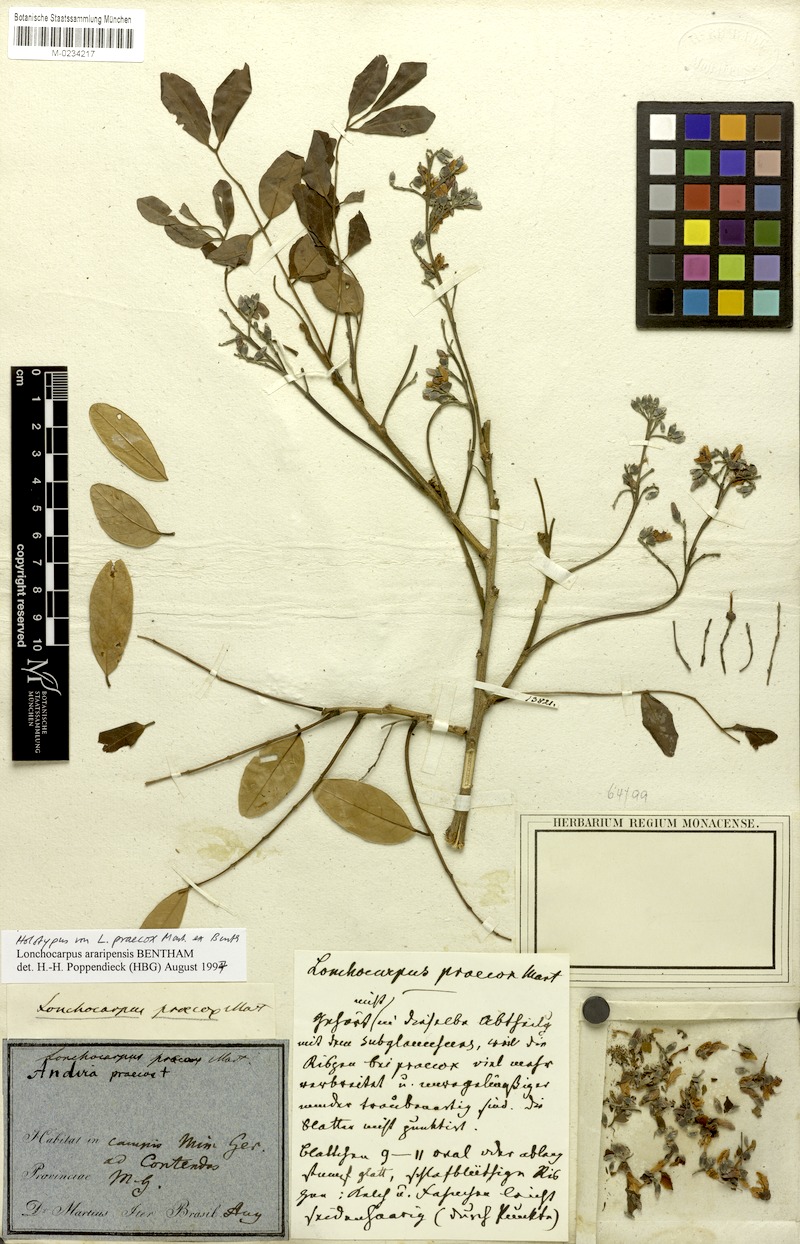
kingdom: Plantae
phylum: Tracheophyta
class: Magnoliopsida
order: Fabales
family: Fabaceae
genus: Lonchocarpus
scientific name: Lonchocarpus praecox
